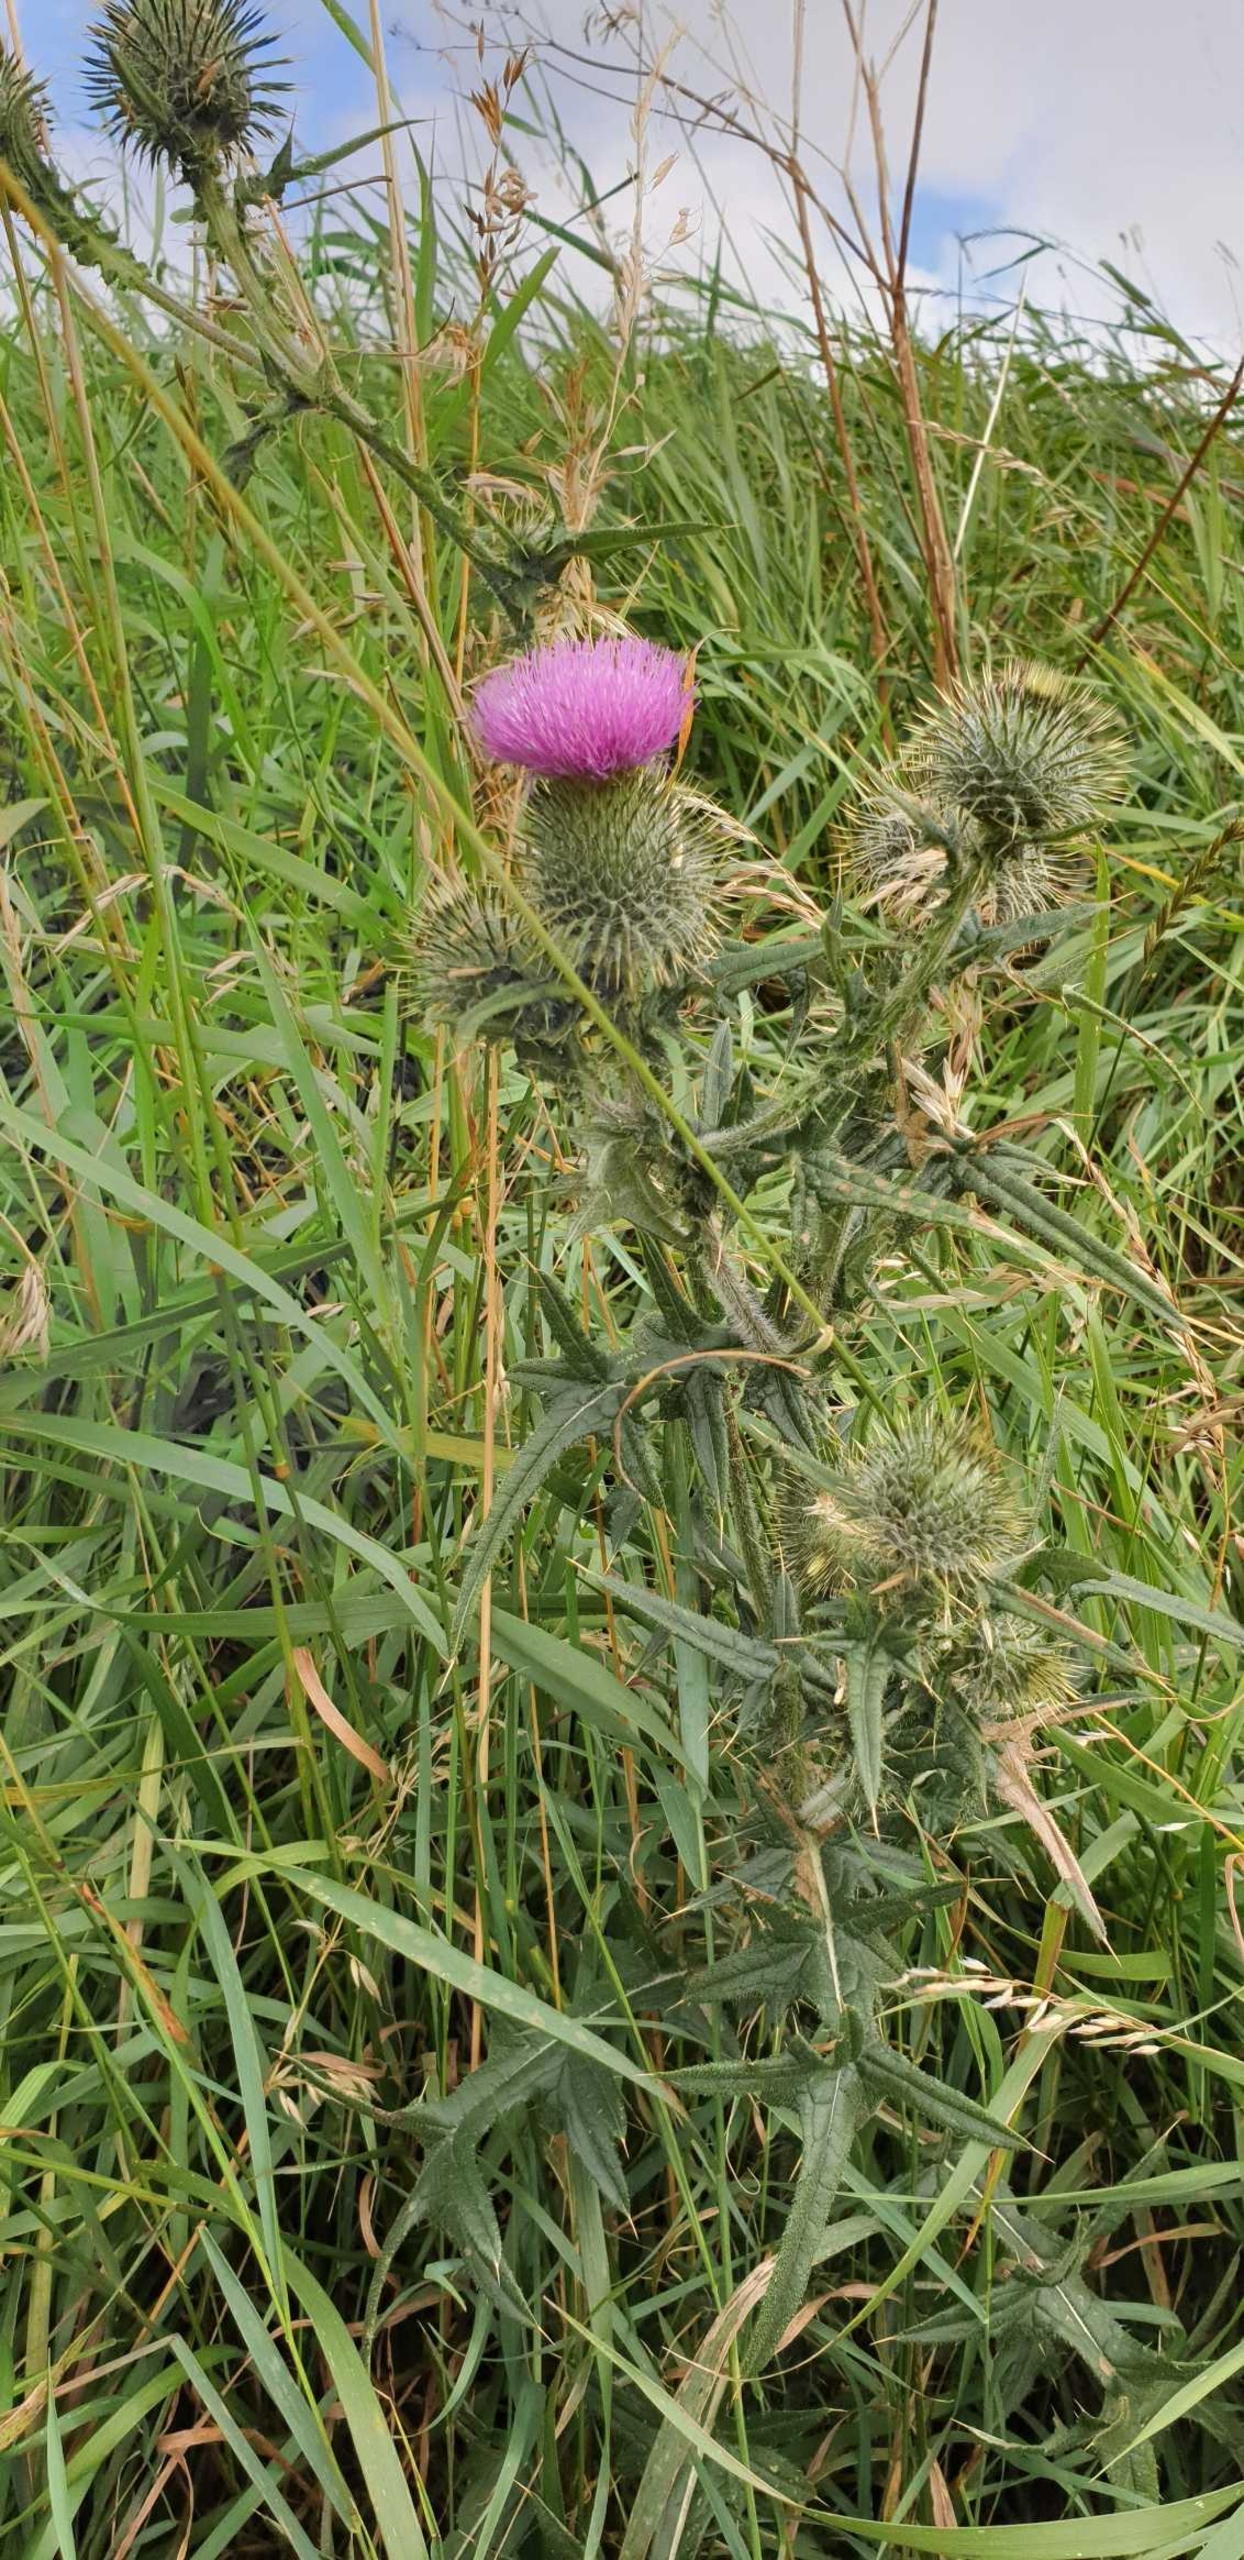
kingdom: Plantae
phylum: Tracheophyta
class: Magnoliopsida
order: Asterales
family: Asteraceae
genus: Cirsium
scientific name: Cirsium vulgare
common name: Horse-tidsel
